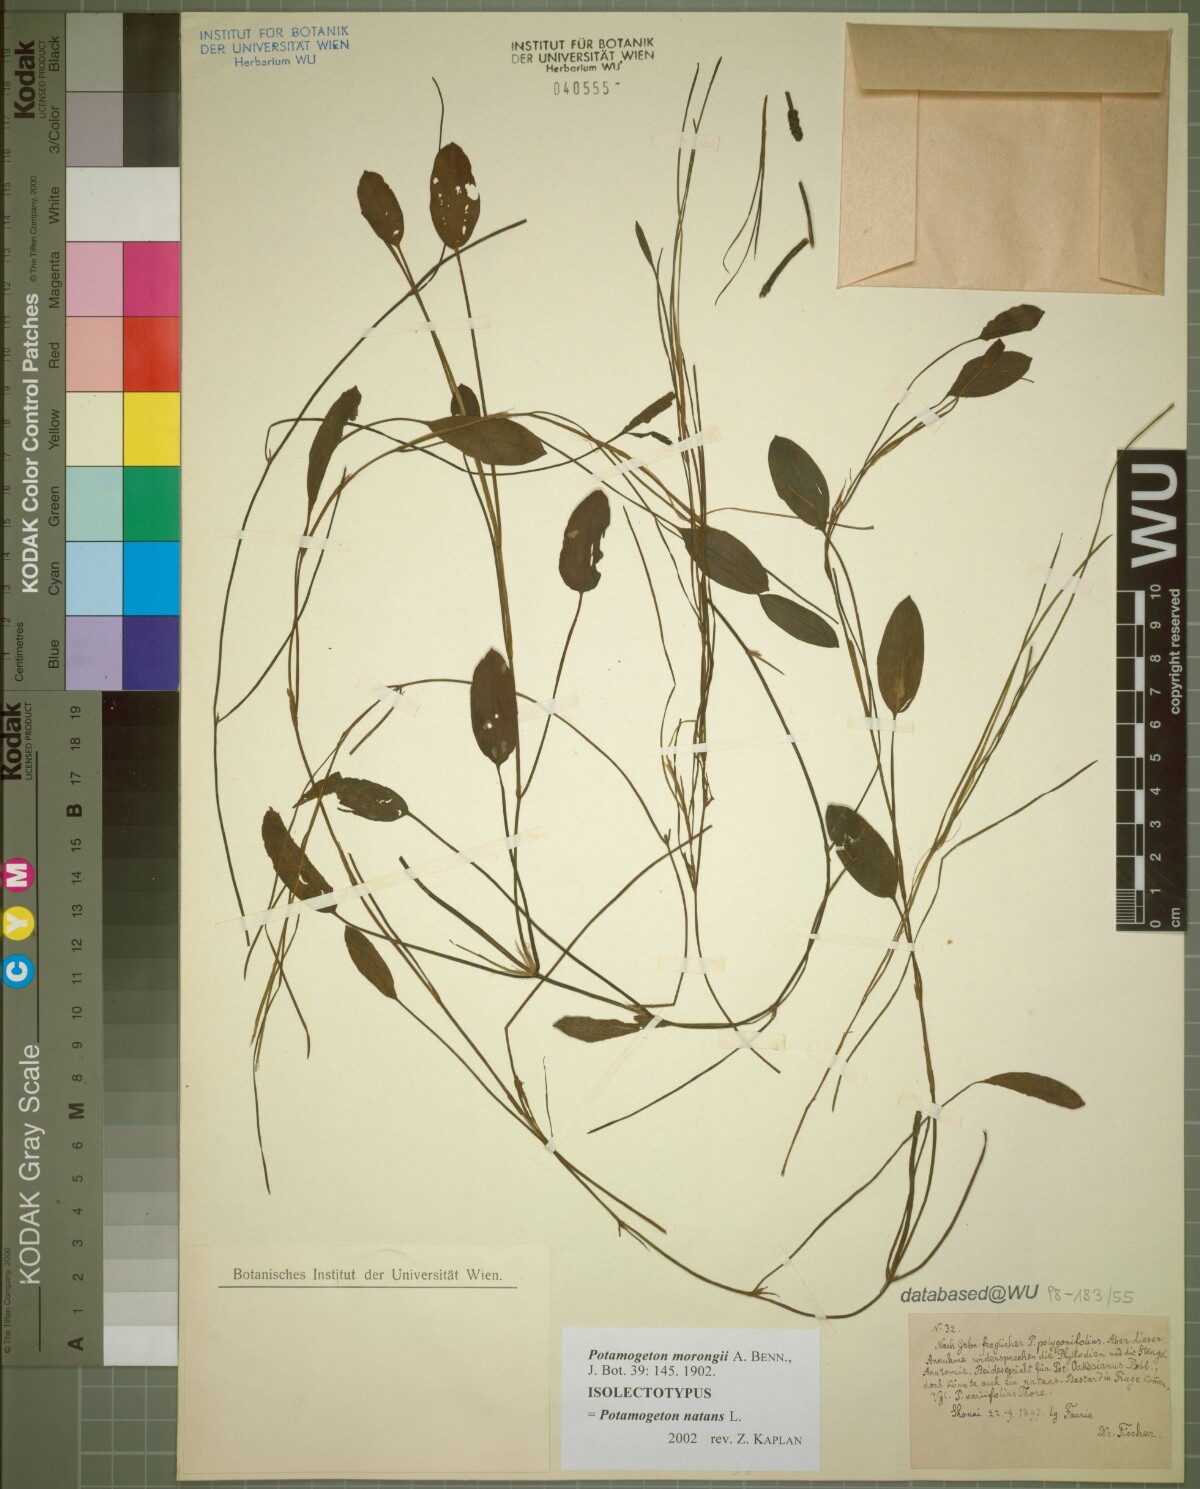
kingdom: Plantae
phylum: Tracheophyta
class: Liliopsida
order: Alismatales
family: Potamogetonaceae
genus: Potamogeton
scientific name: Potamogeton natans
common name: Broad-leaved pondweed
